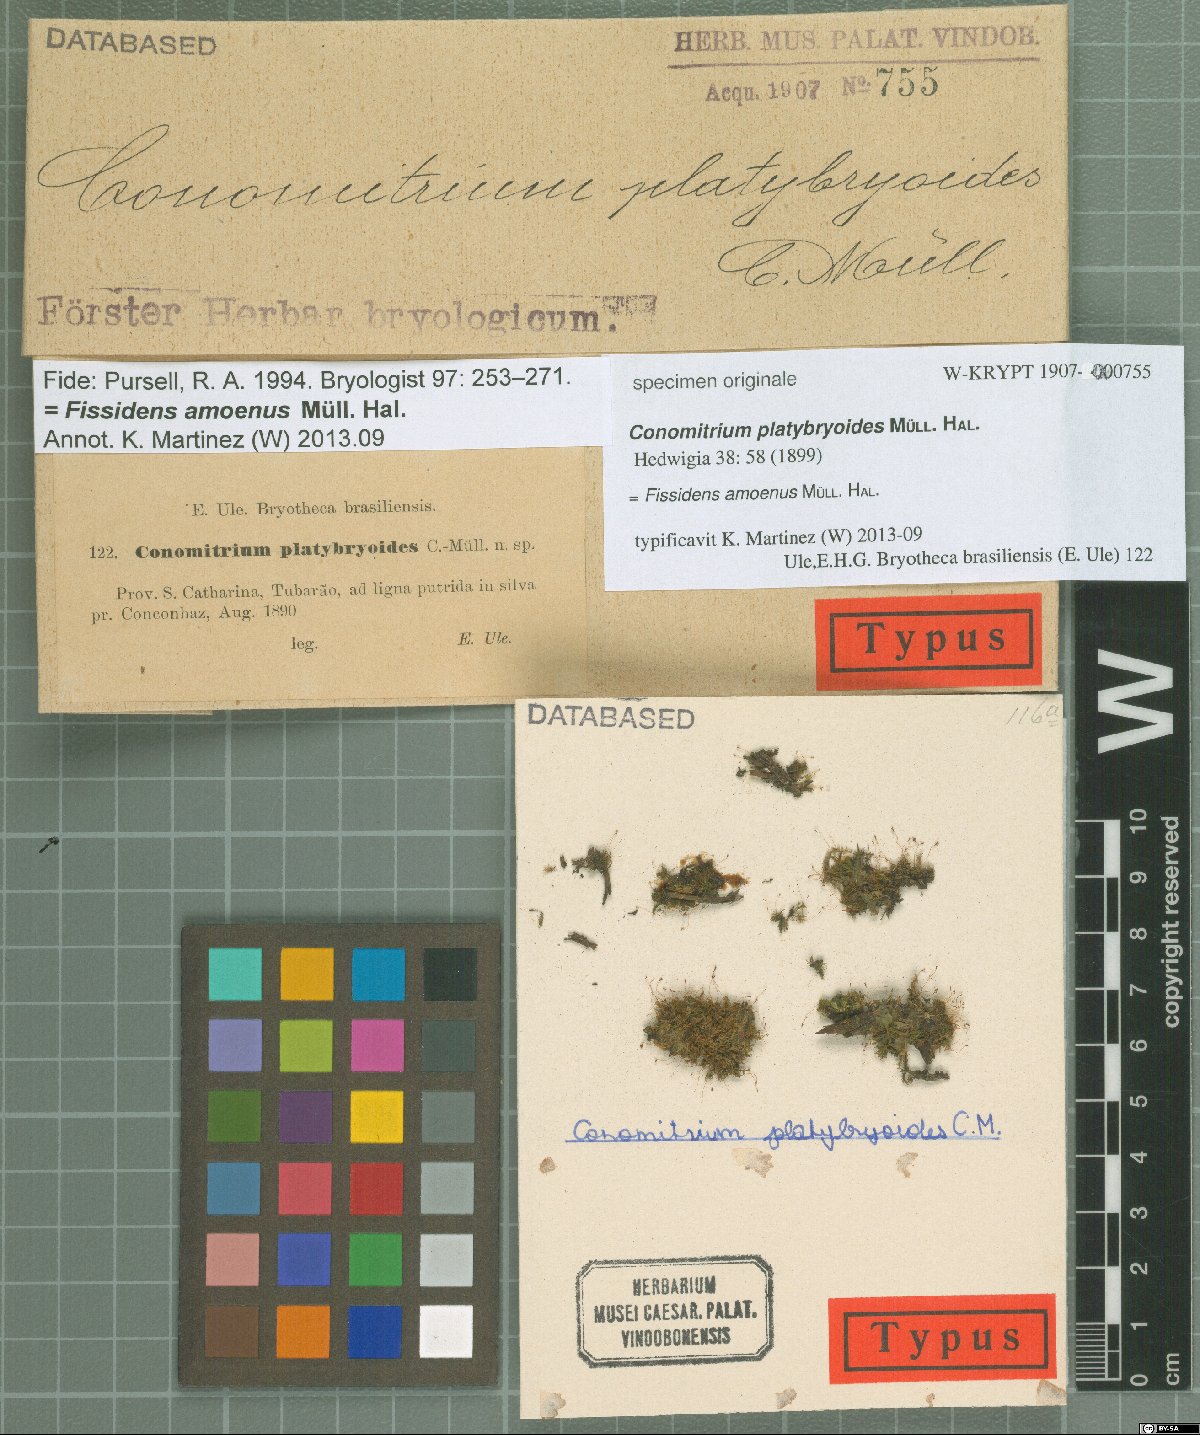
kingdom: Plantae
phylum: Bryophyta
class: Bryopsida
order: Dicranales
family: Fissidentaceae
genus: Conomitrium
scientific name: Conomitrium
